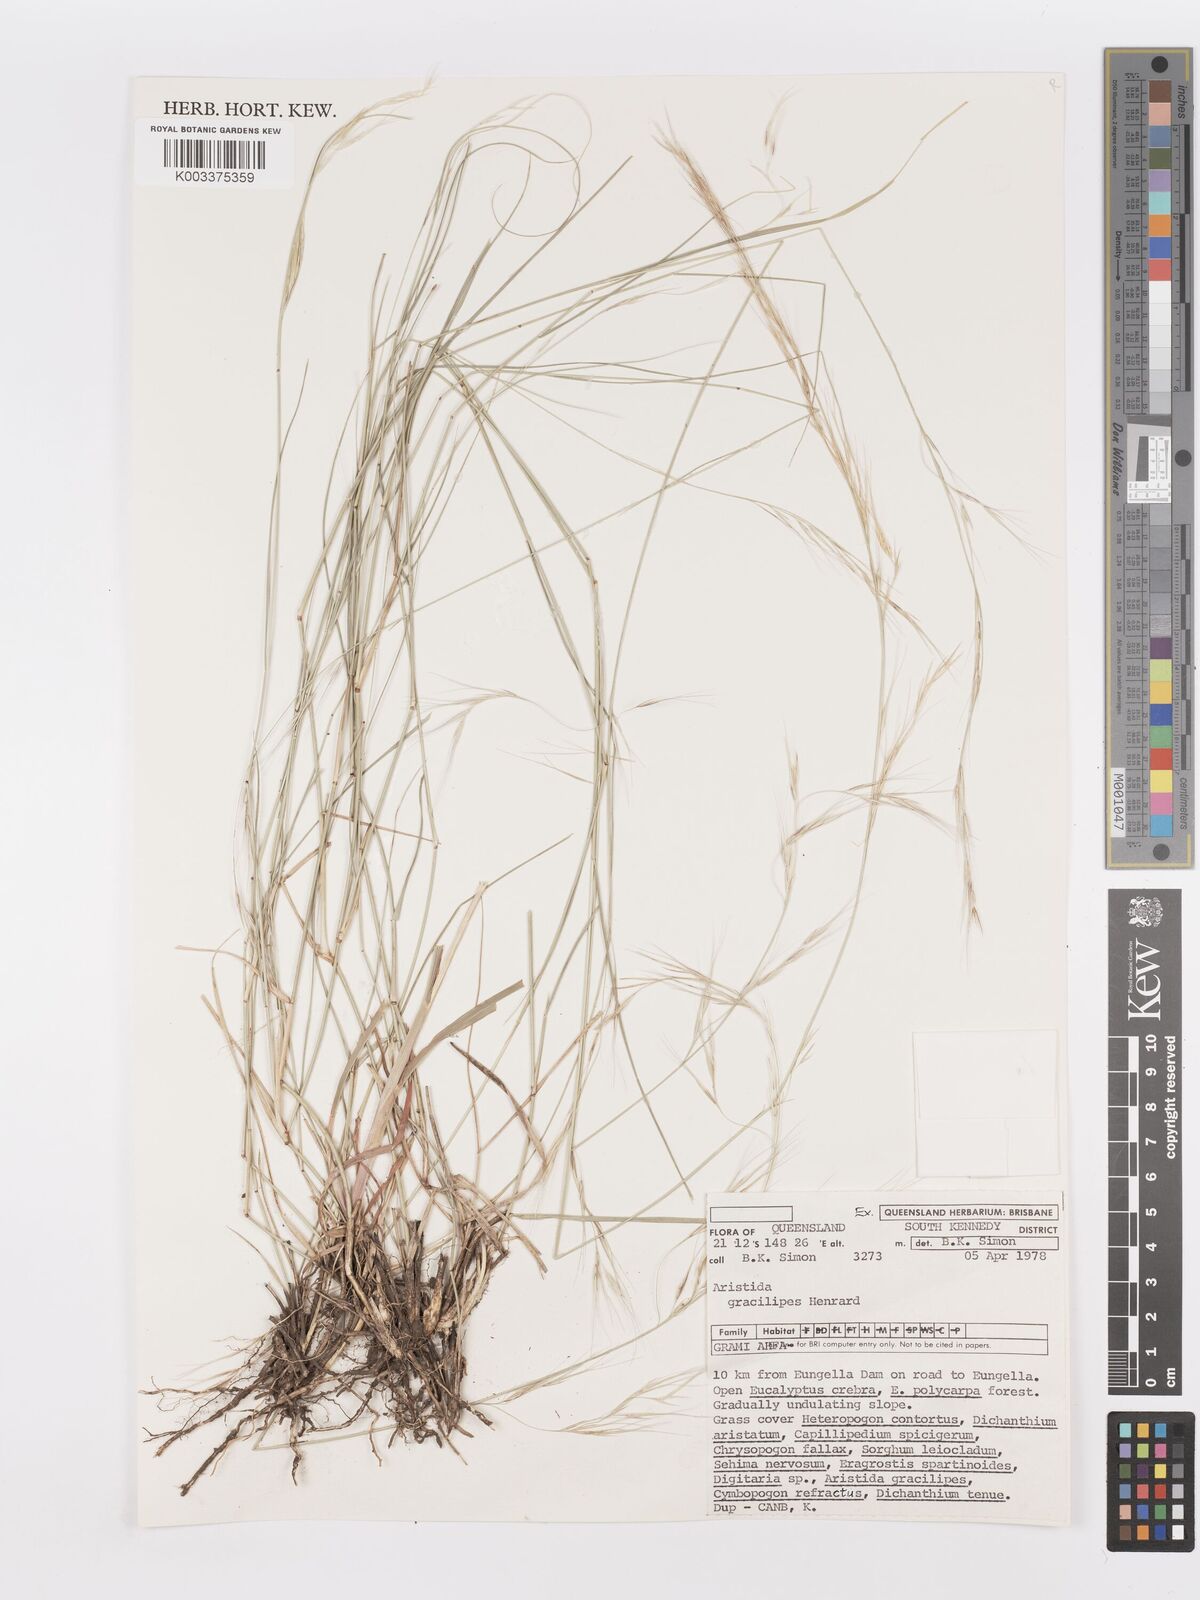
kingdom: Plantae
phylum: Tracheophyta
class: Liliopsida
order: Poales
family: Poaceae
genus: Aristida
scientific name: Aristida gracilipes
